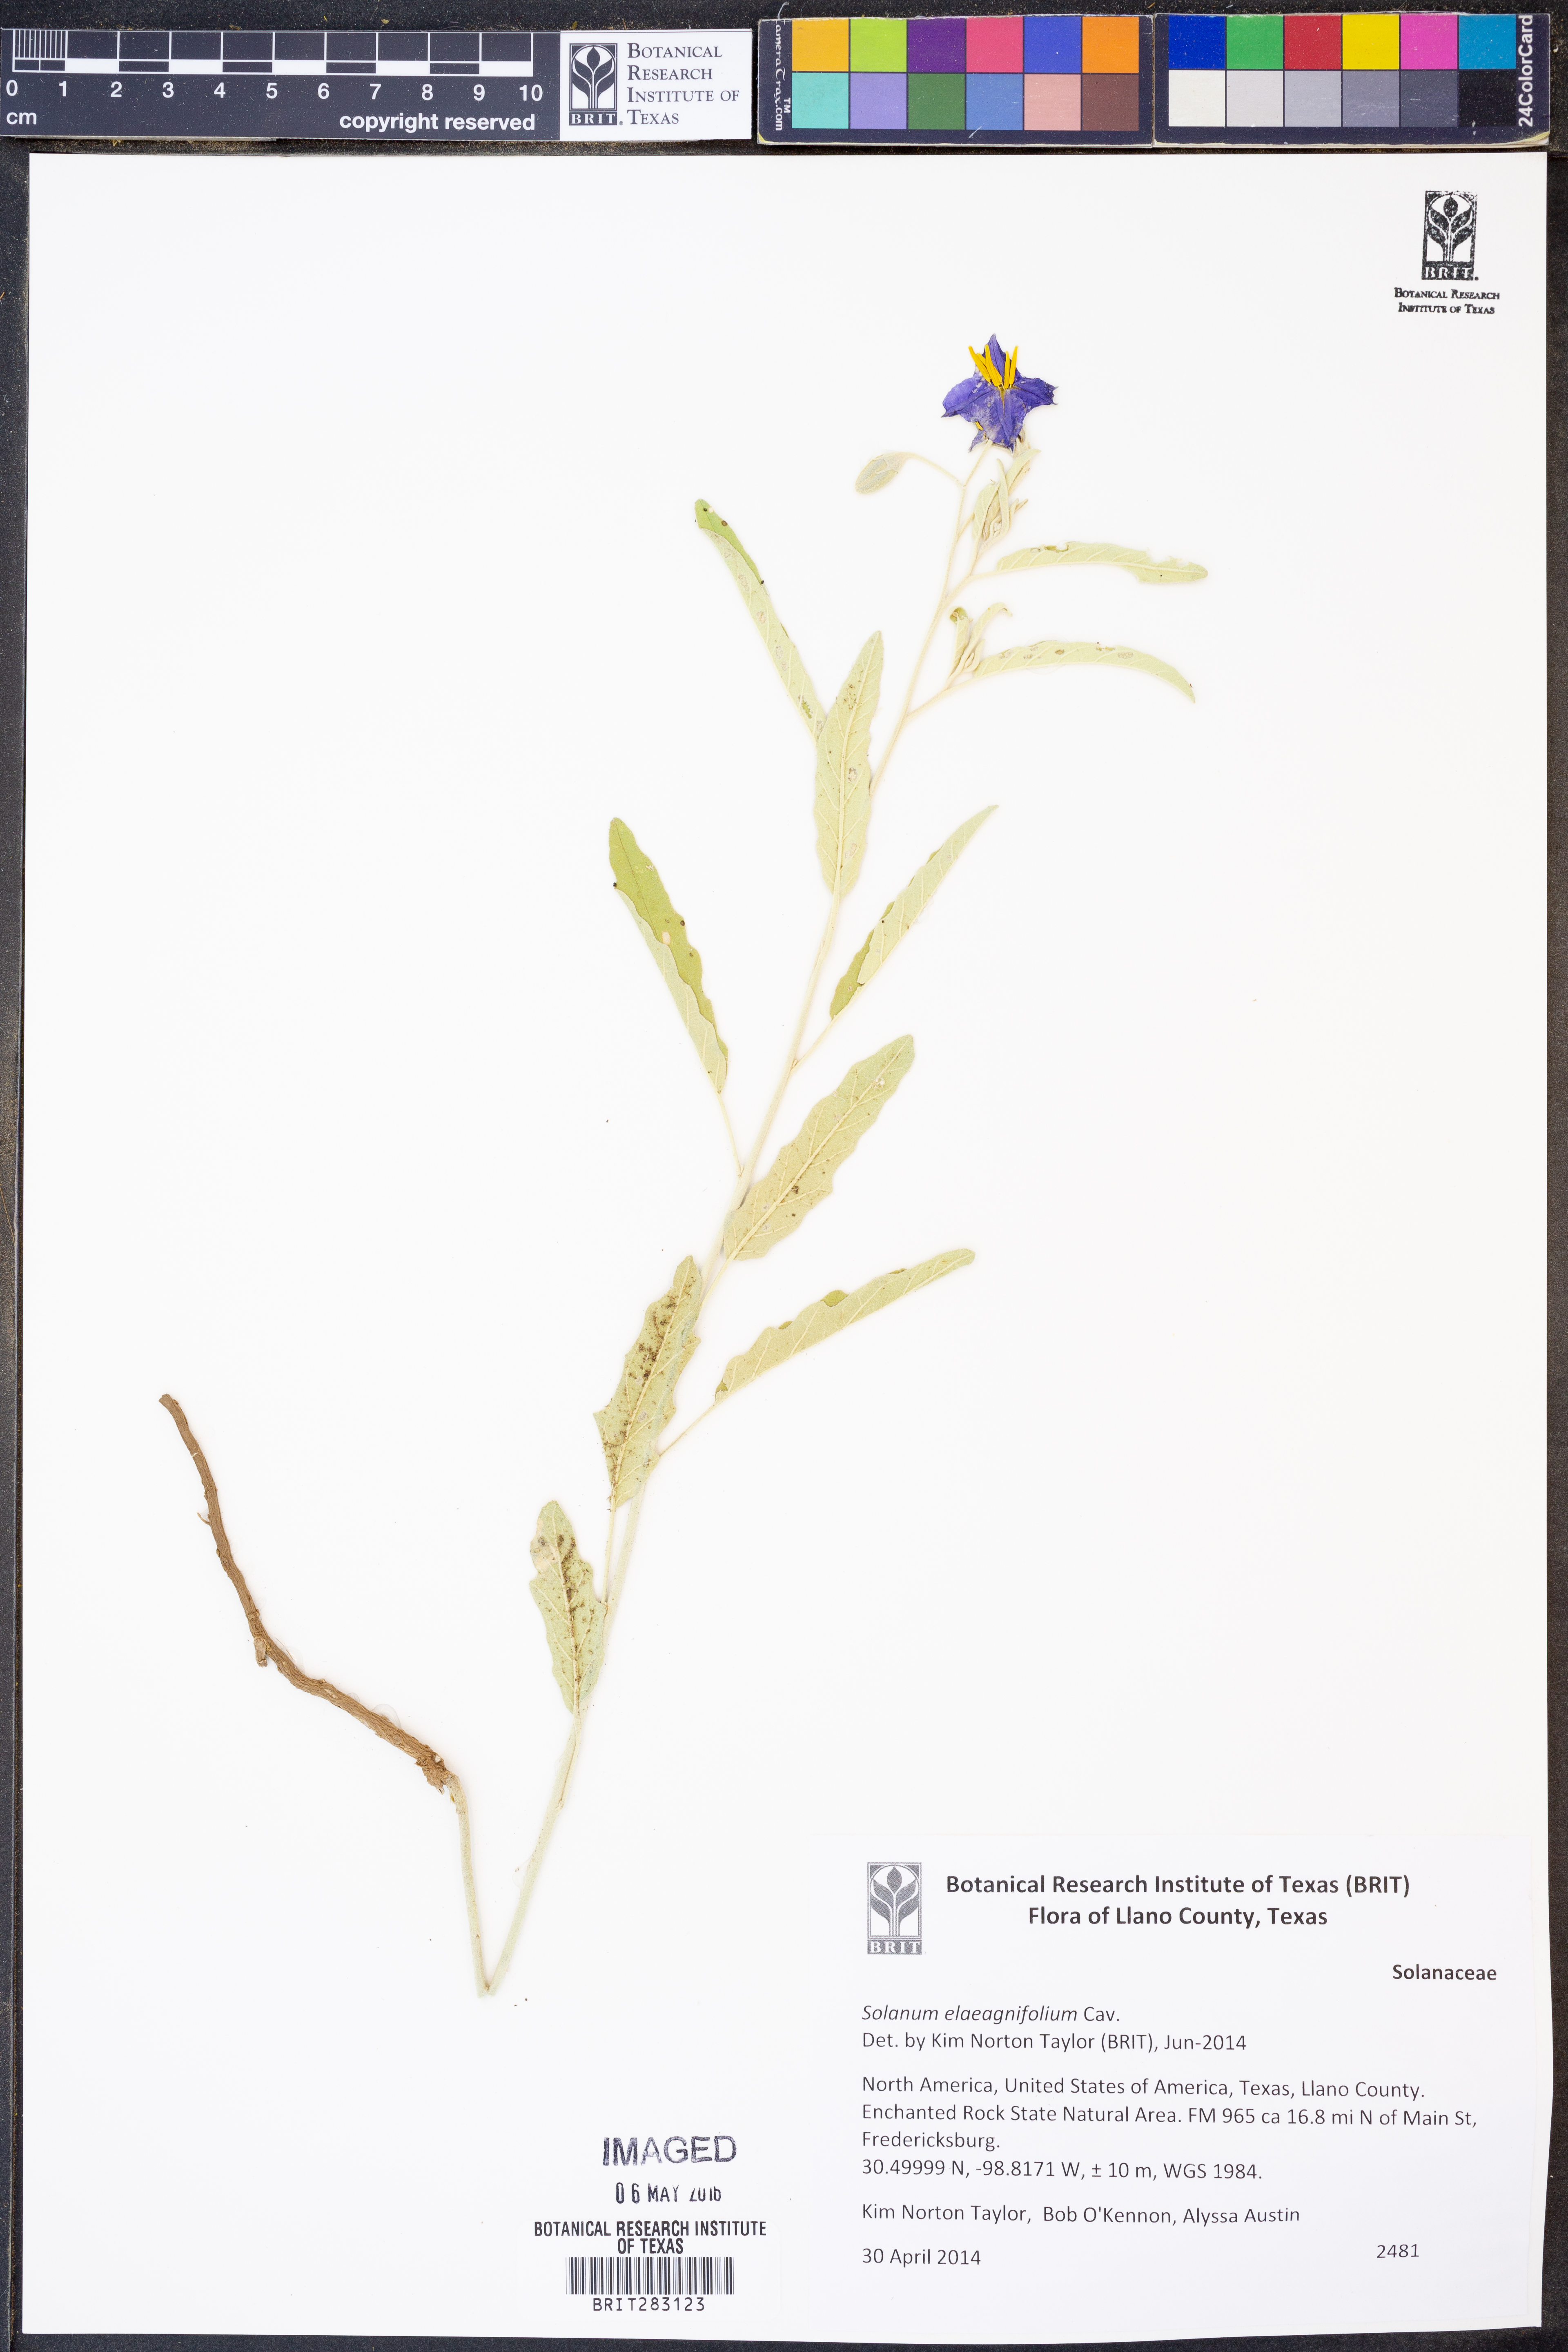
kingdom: Plantae
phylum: Tracheophyta
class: Magnoliopsida
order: Solanales
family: Solanaceae
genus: Solanum
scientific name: Solanum elaeagnifolium
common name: Silverleaf nightshade
